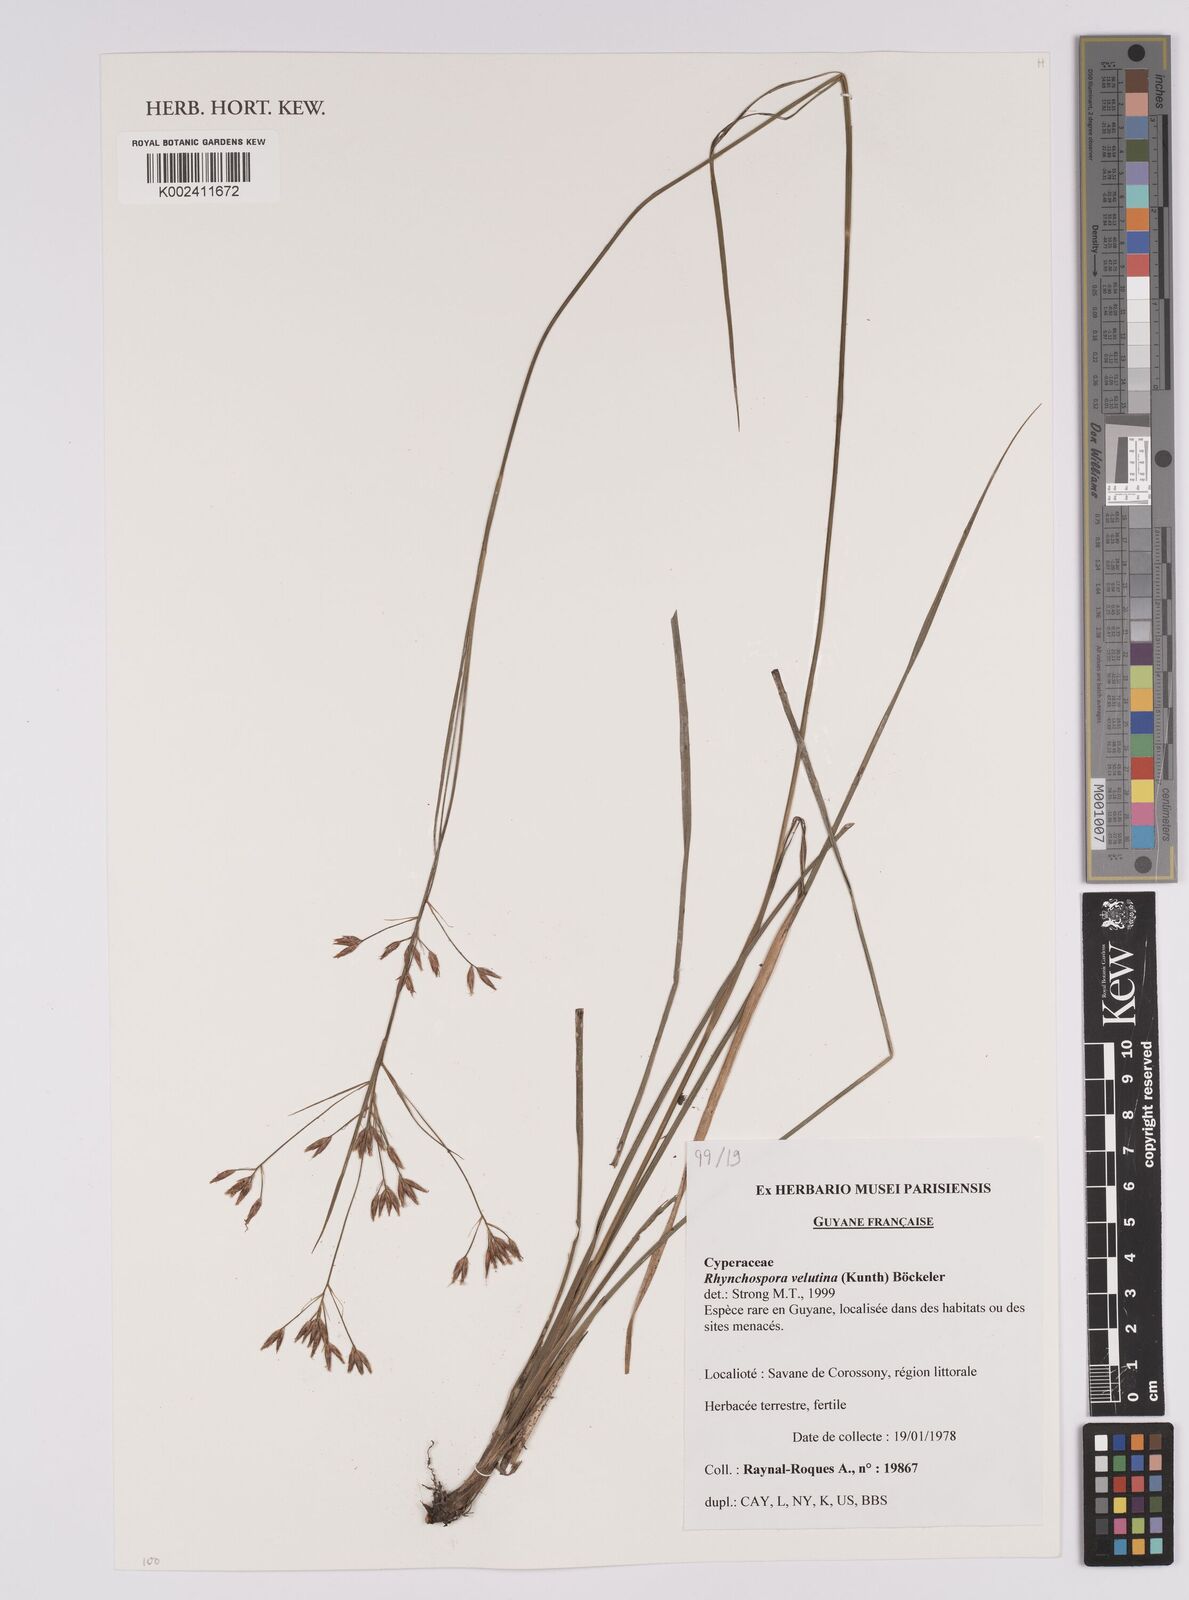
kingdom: Plantae
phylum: Tracheophyta
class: Liliopsida
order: Poales
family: Cyperaceae
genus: Rhynchospora
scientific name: Rhynchospora velutina
